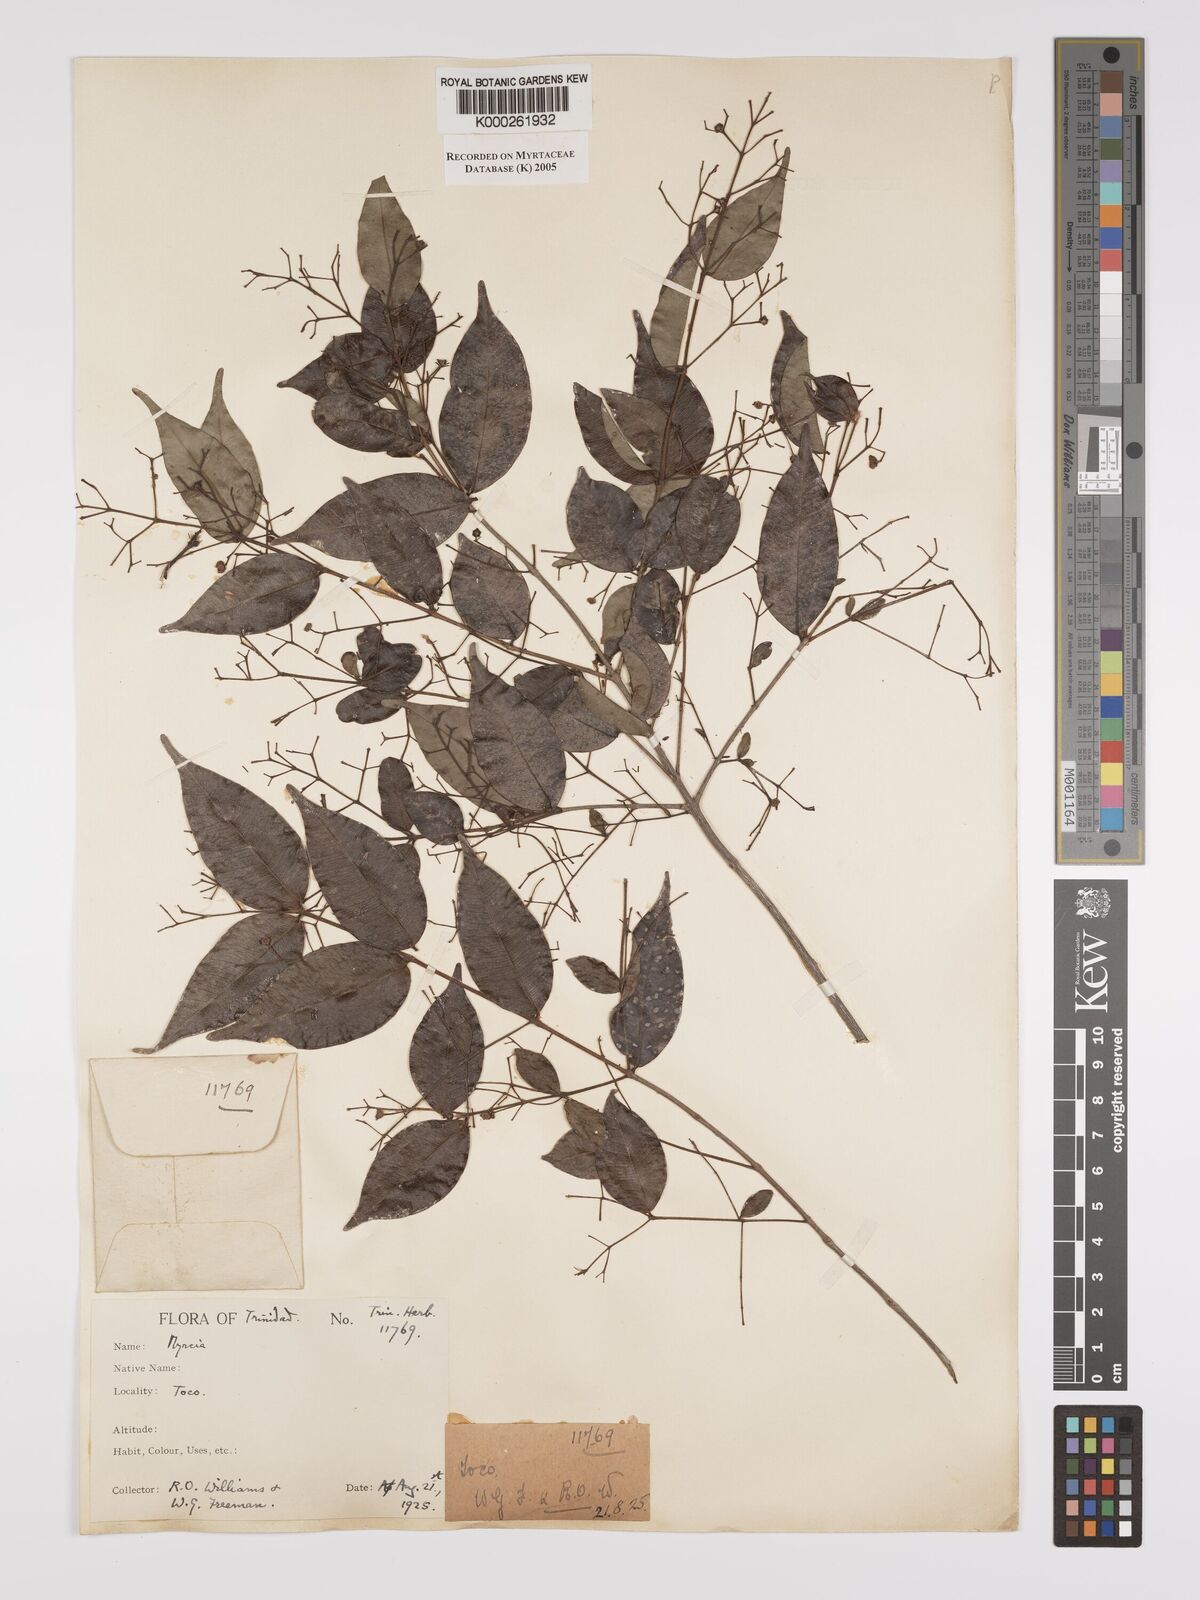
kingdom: Plantae
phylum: Tracheophyta
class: Magnoliopsida
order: Myrtales
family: Myrtaceae
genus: Myrcia
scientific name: Myrcia splendens
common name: Surinam cherry
